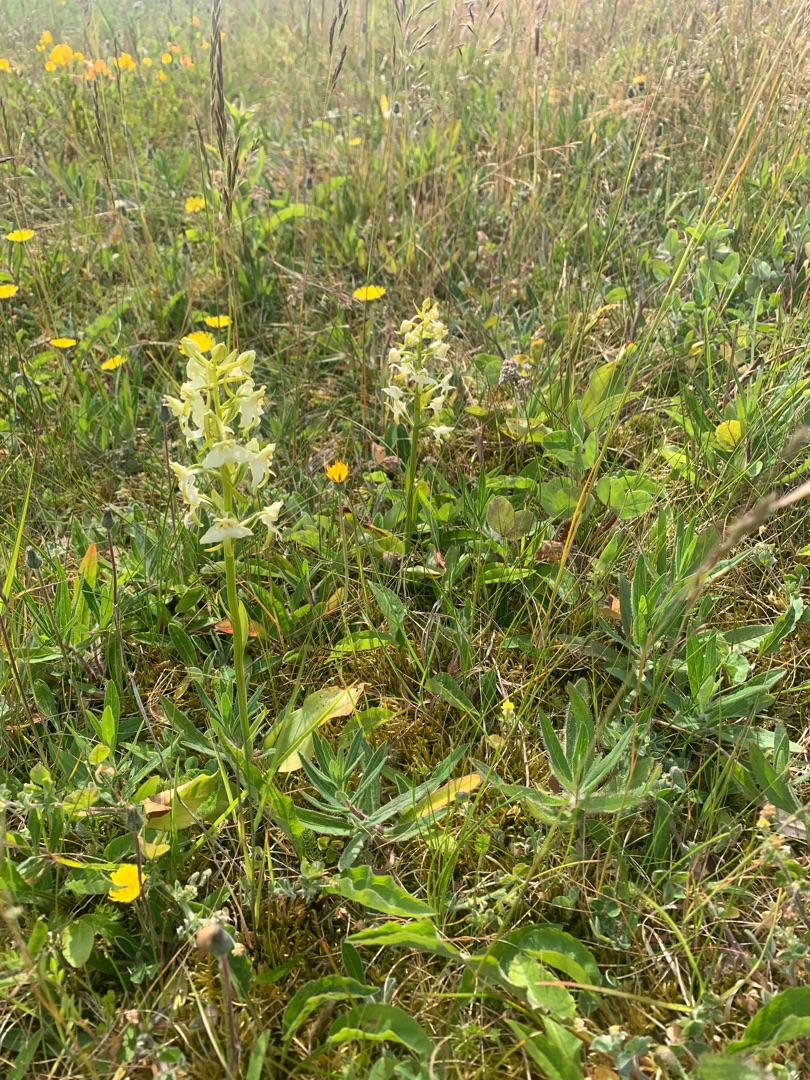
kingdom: Plantae
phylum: Tracheophyta
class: Liliopsida
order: Asparagales
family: Orchidaceae
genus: Platanthera
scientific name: Platanthera chlorantha
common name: Skov-gøgelilje
